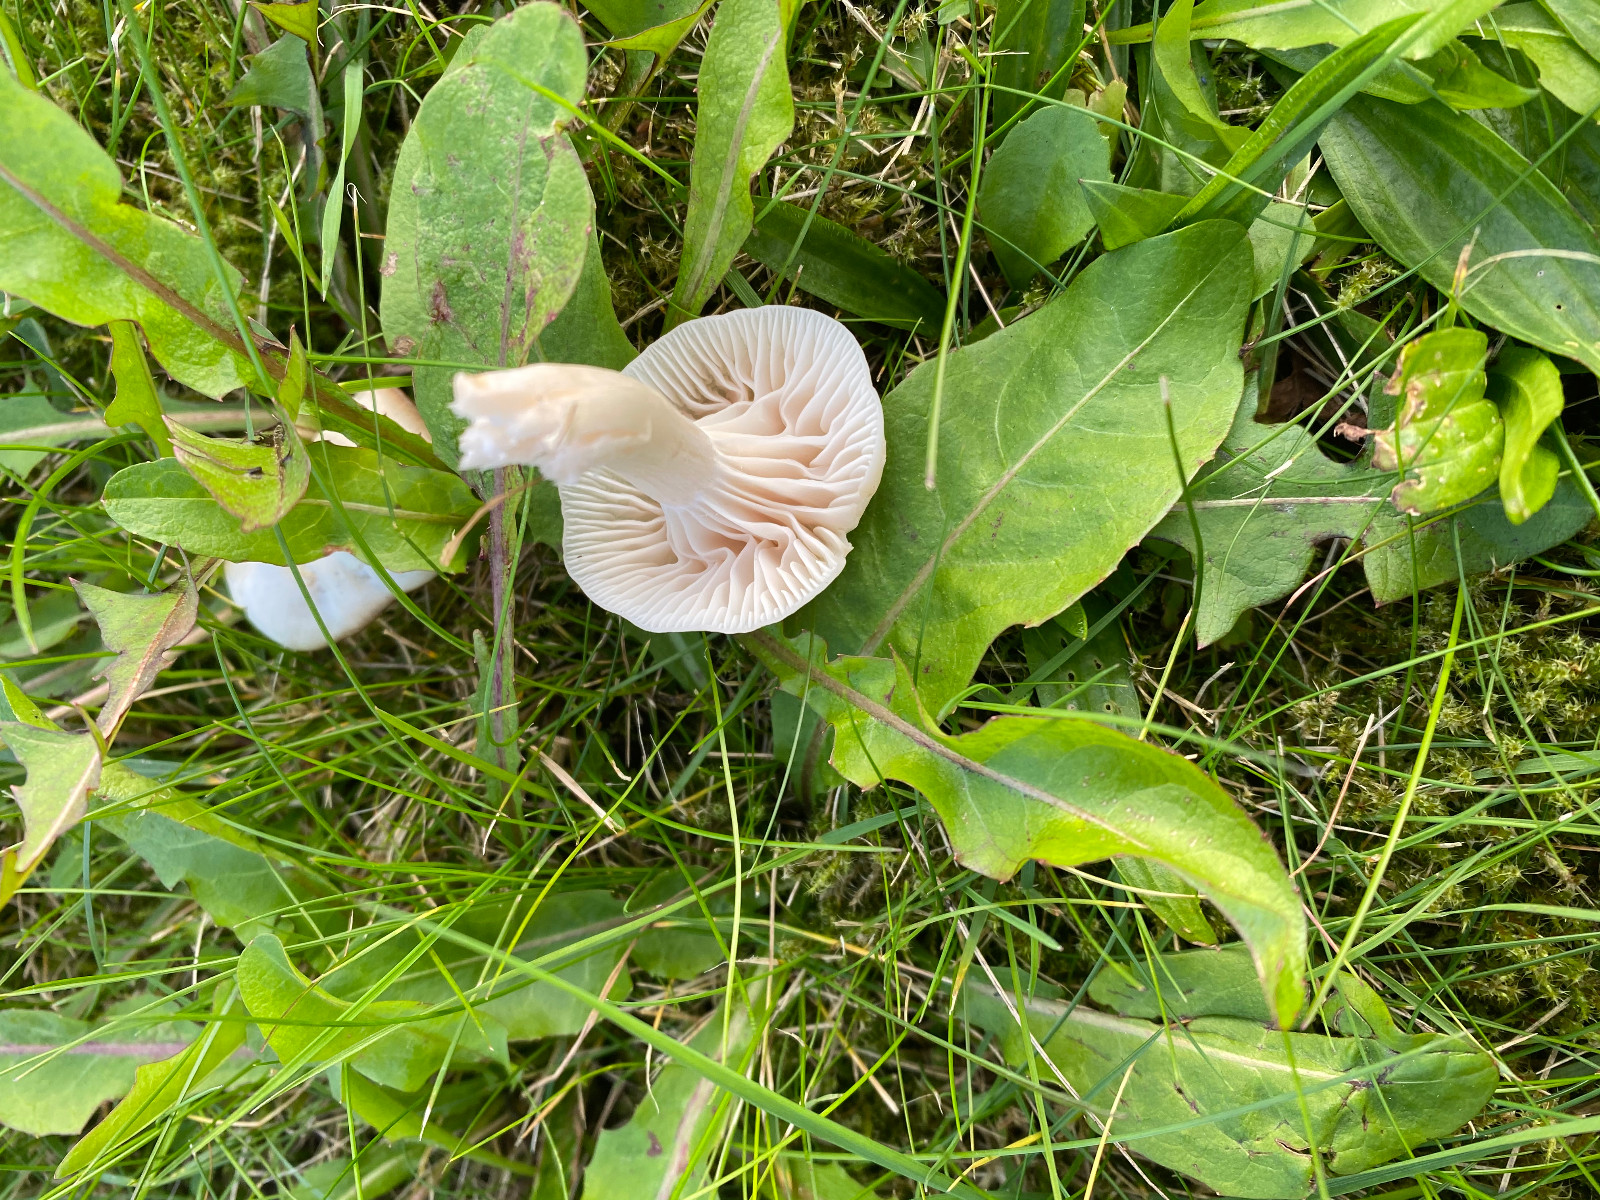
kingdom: Fungi
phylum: Basidiomycota
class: Agaricomycetes
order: Agaricales
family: Hygrophoraceae
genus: Cuphophyllus
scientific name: Cuphophyllus
